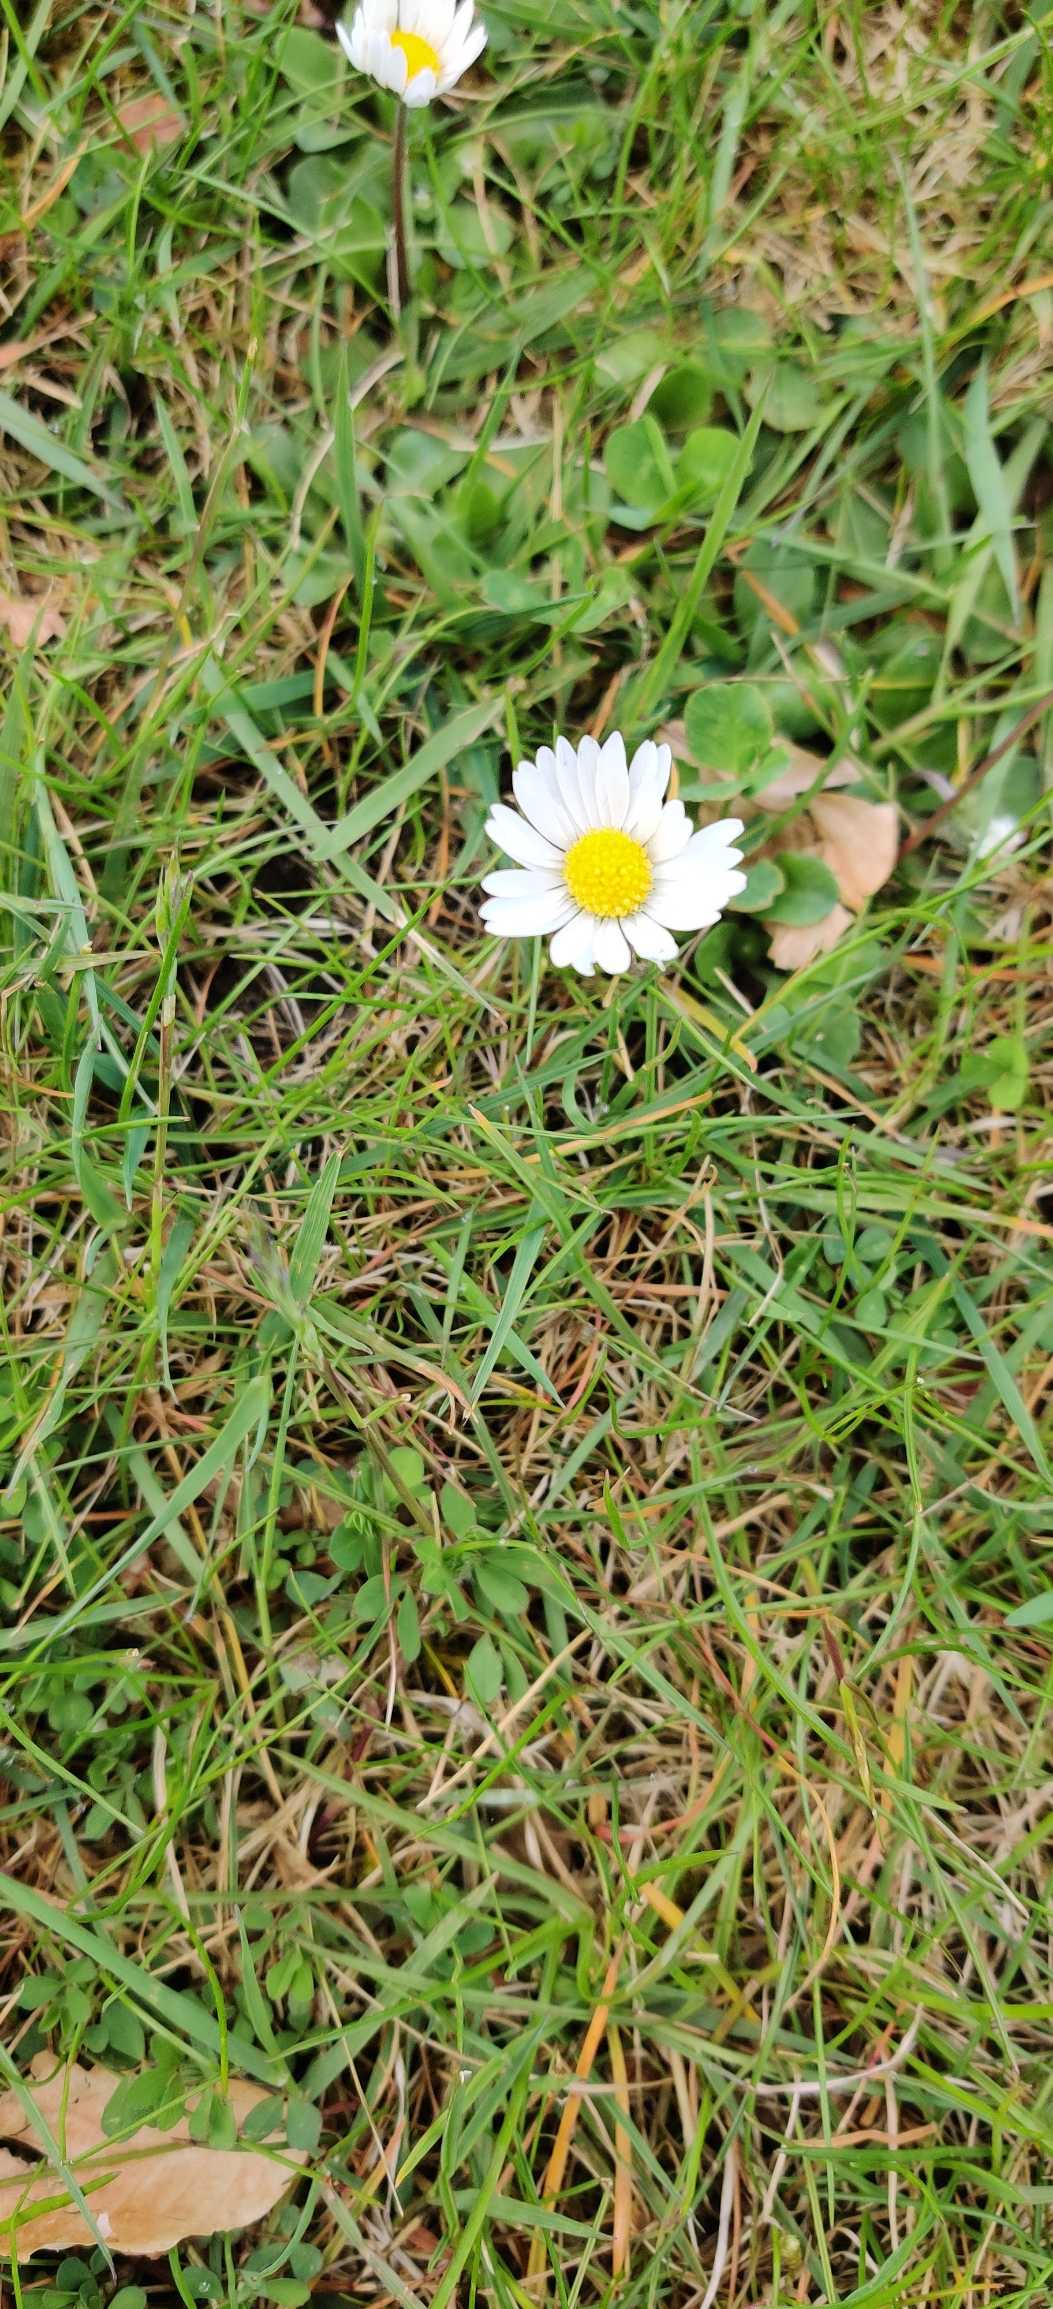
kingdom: Plantae
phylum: Tracheophyta
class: Magnoliopsida
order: Asterales
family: Asteraceae
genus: Bellis
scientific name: Bellis perennis
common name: Tusindfryd
